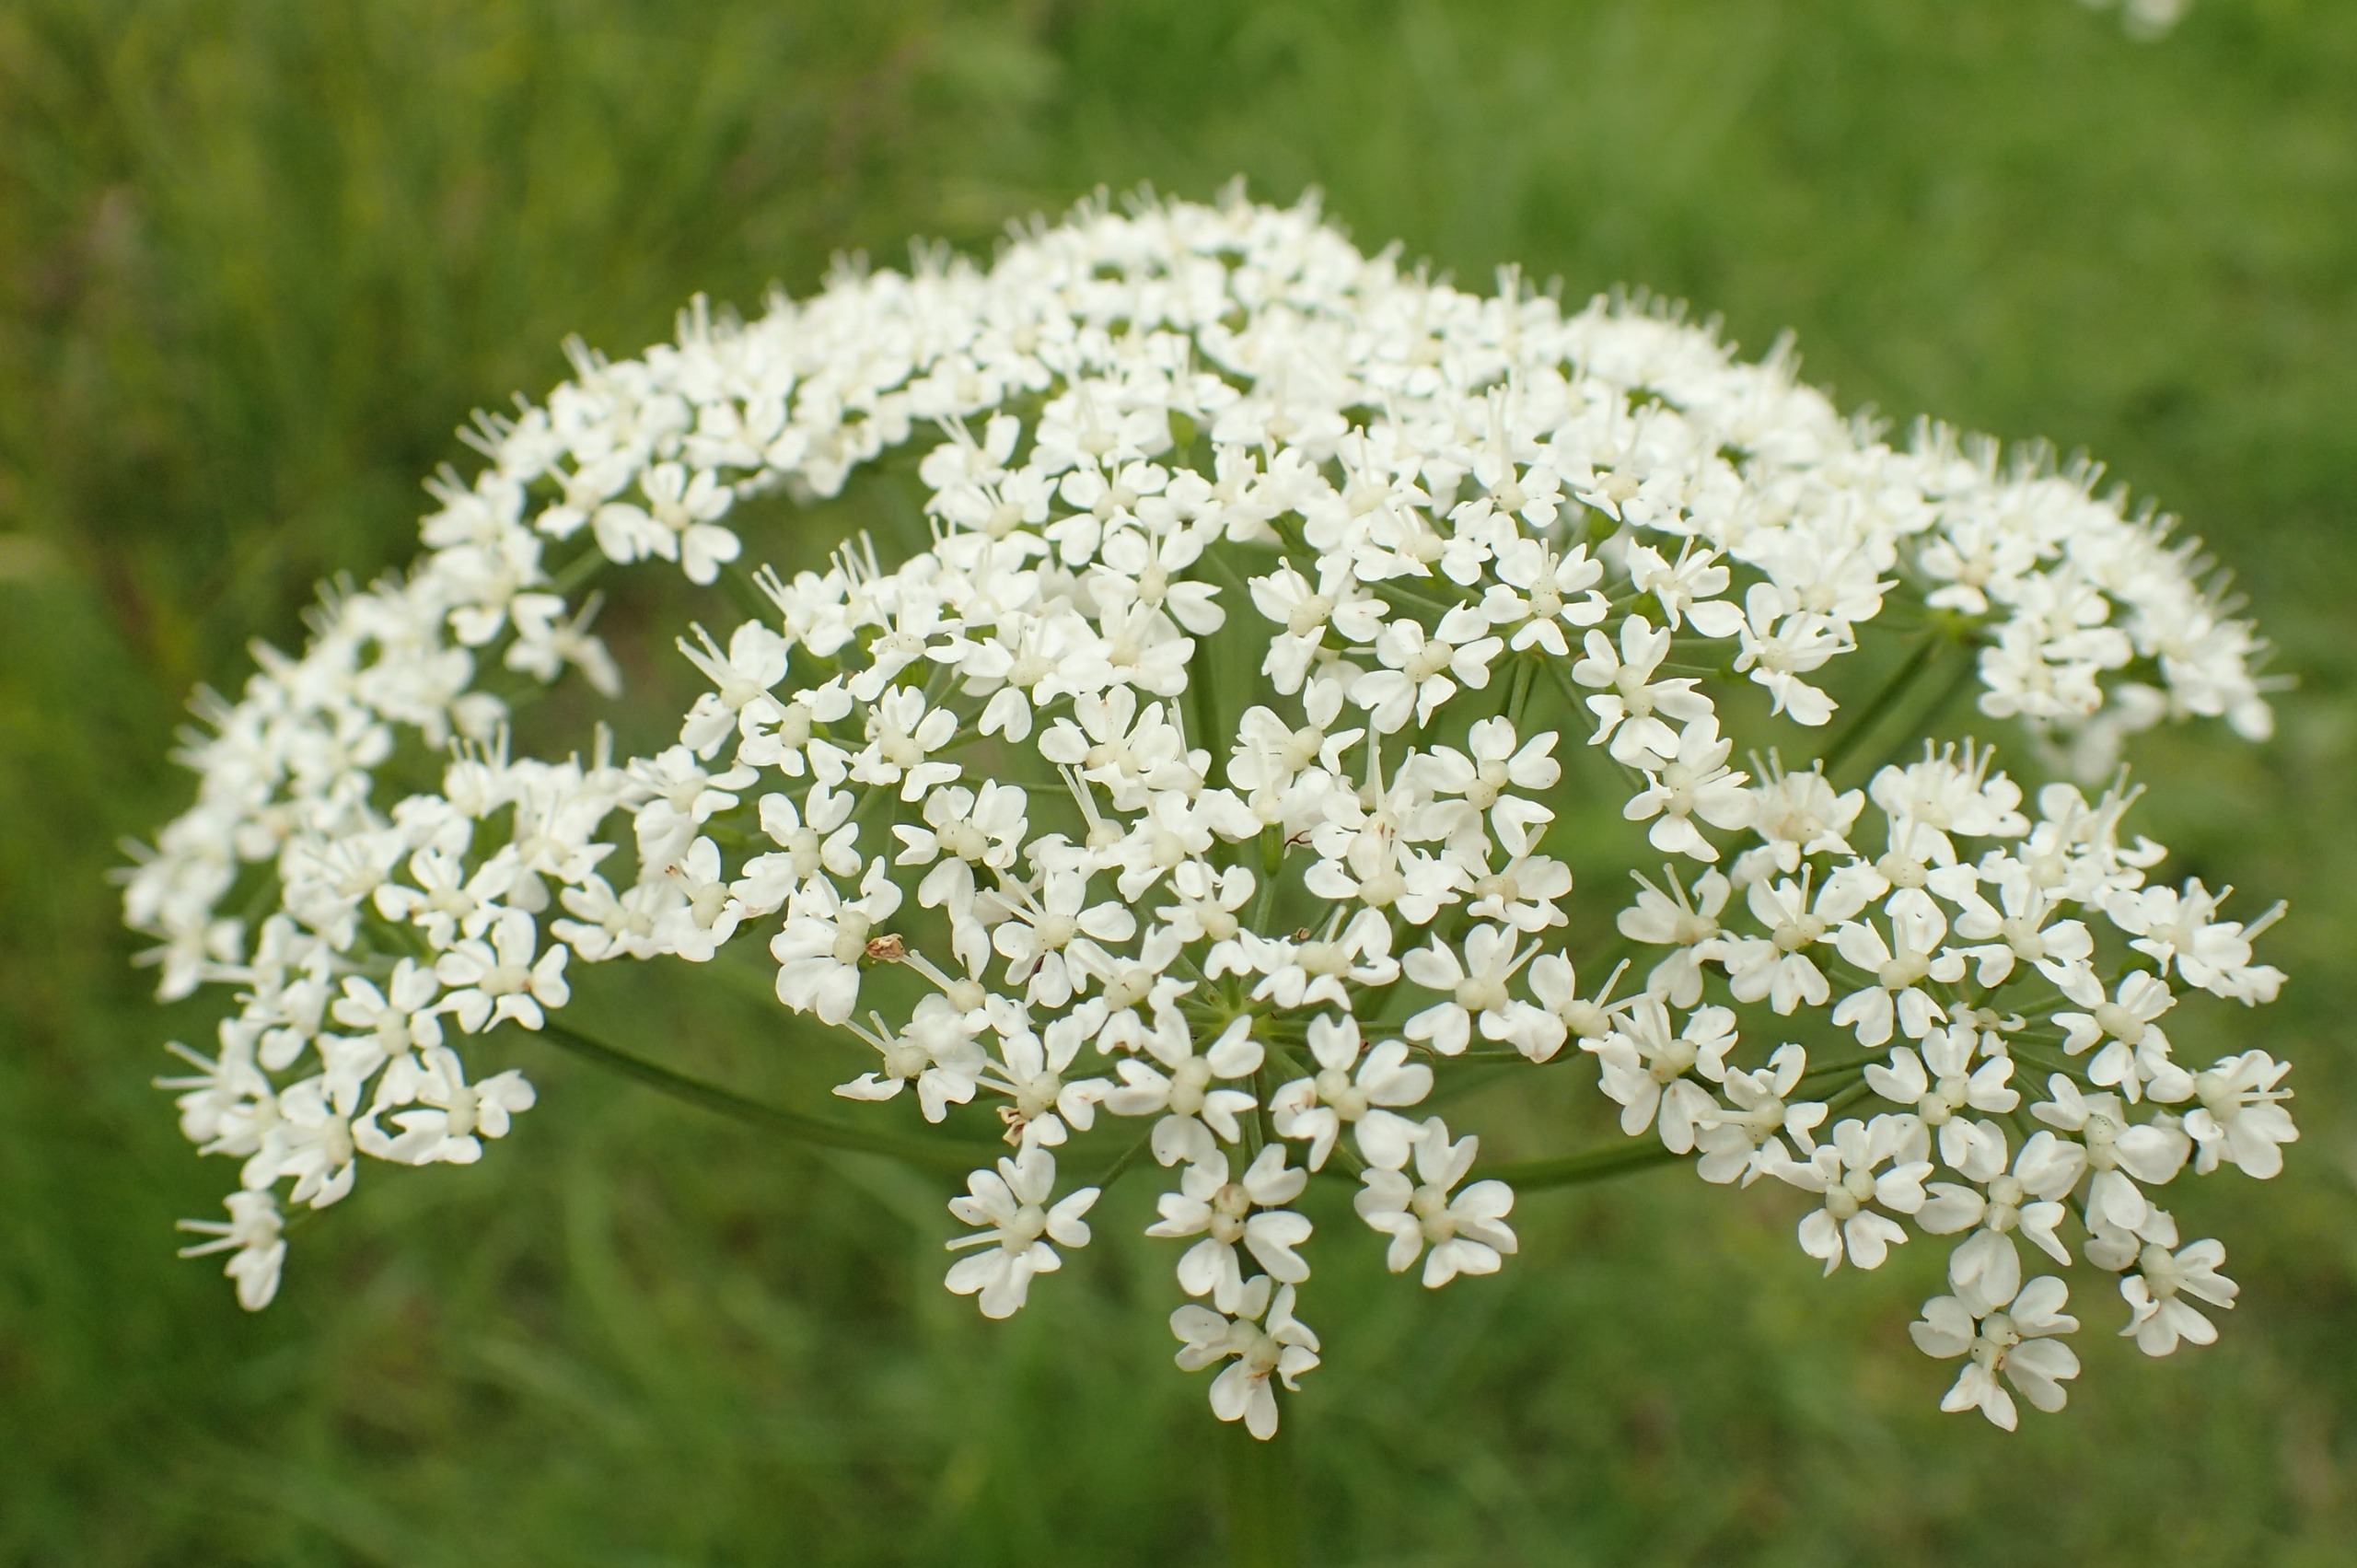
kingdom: Plantae
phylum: Tracheophyta
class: Magnoliopsida
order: Apiales
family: Apiaceae
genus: Aegopodium
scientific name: Aegopodium podagraria
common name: Skvalderkål
